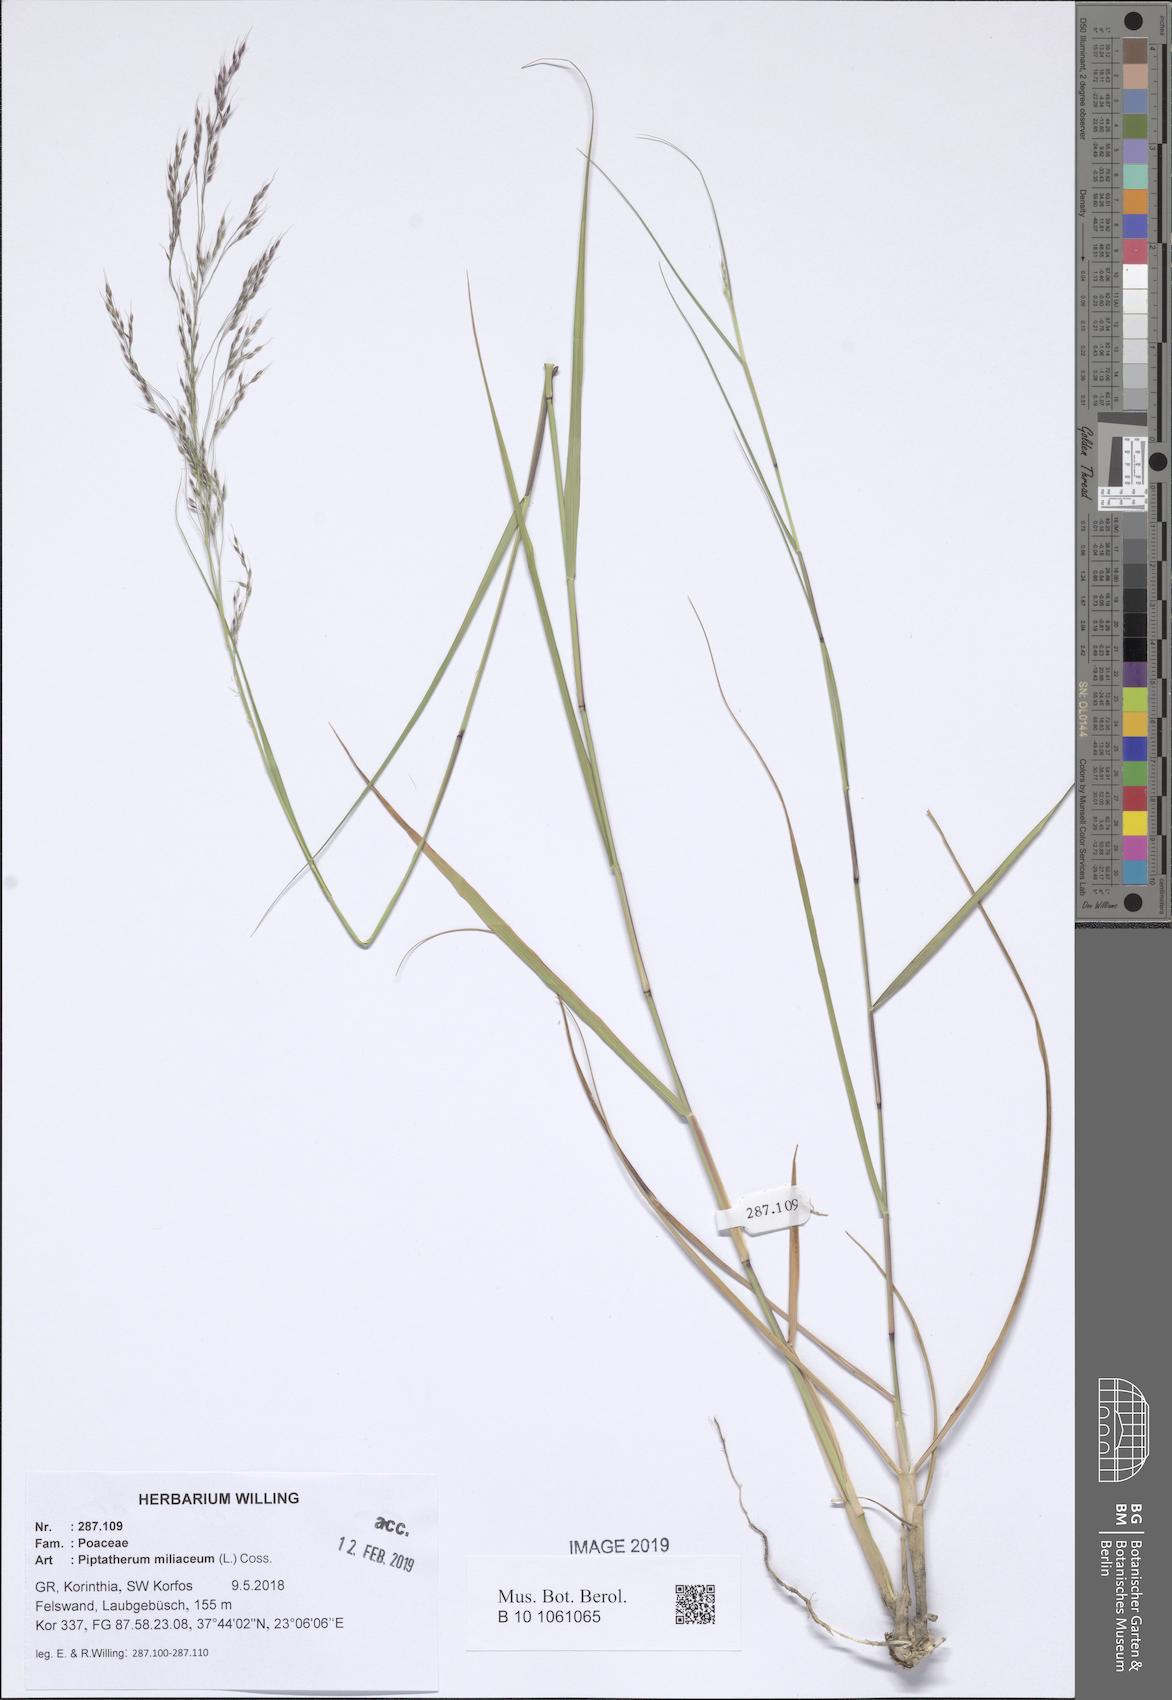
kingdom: Plantae
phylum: Tracheophyta
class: Liliopsida
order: Poales
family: Poaceae
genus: Oloptum
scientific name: Oloptum miliaceum
